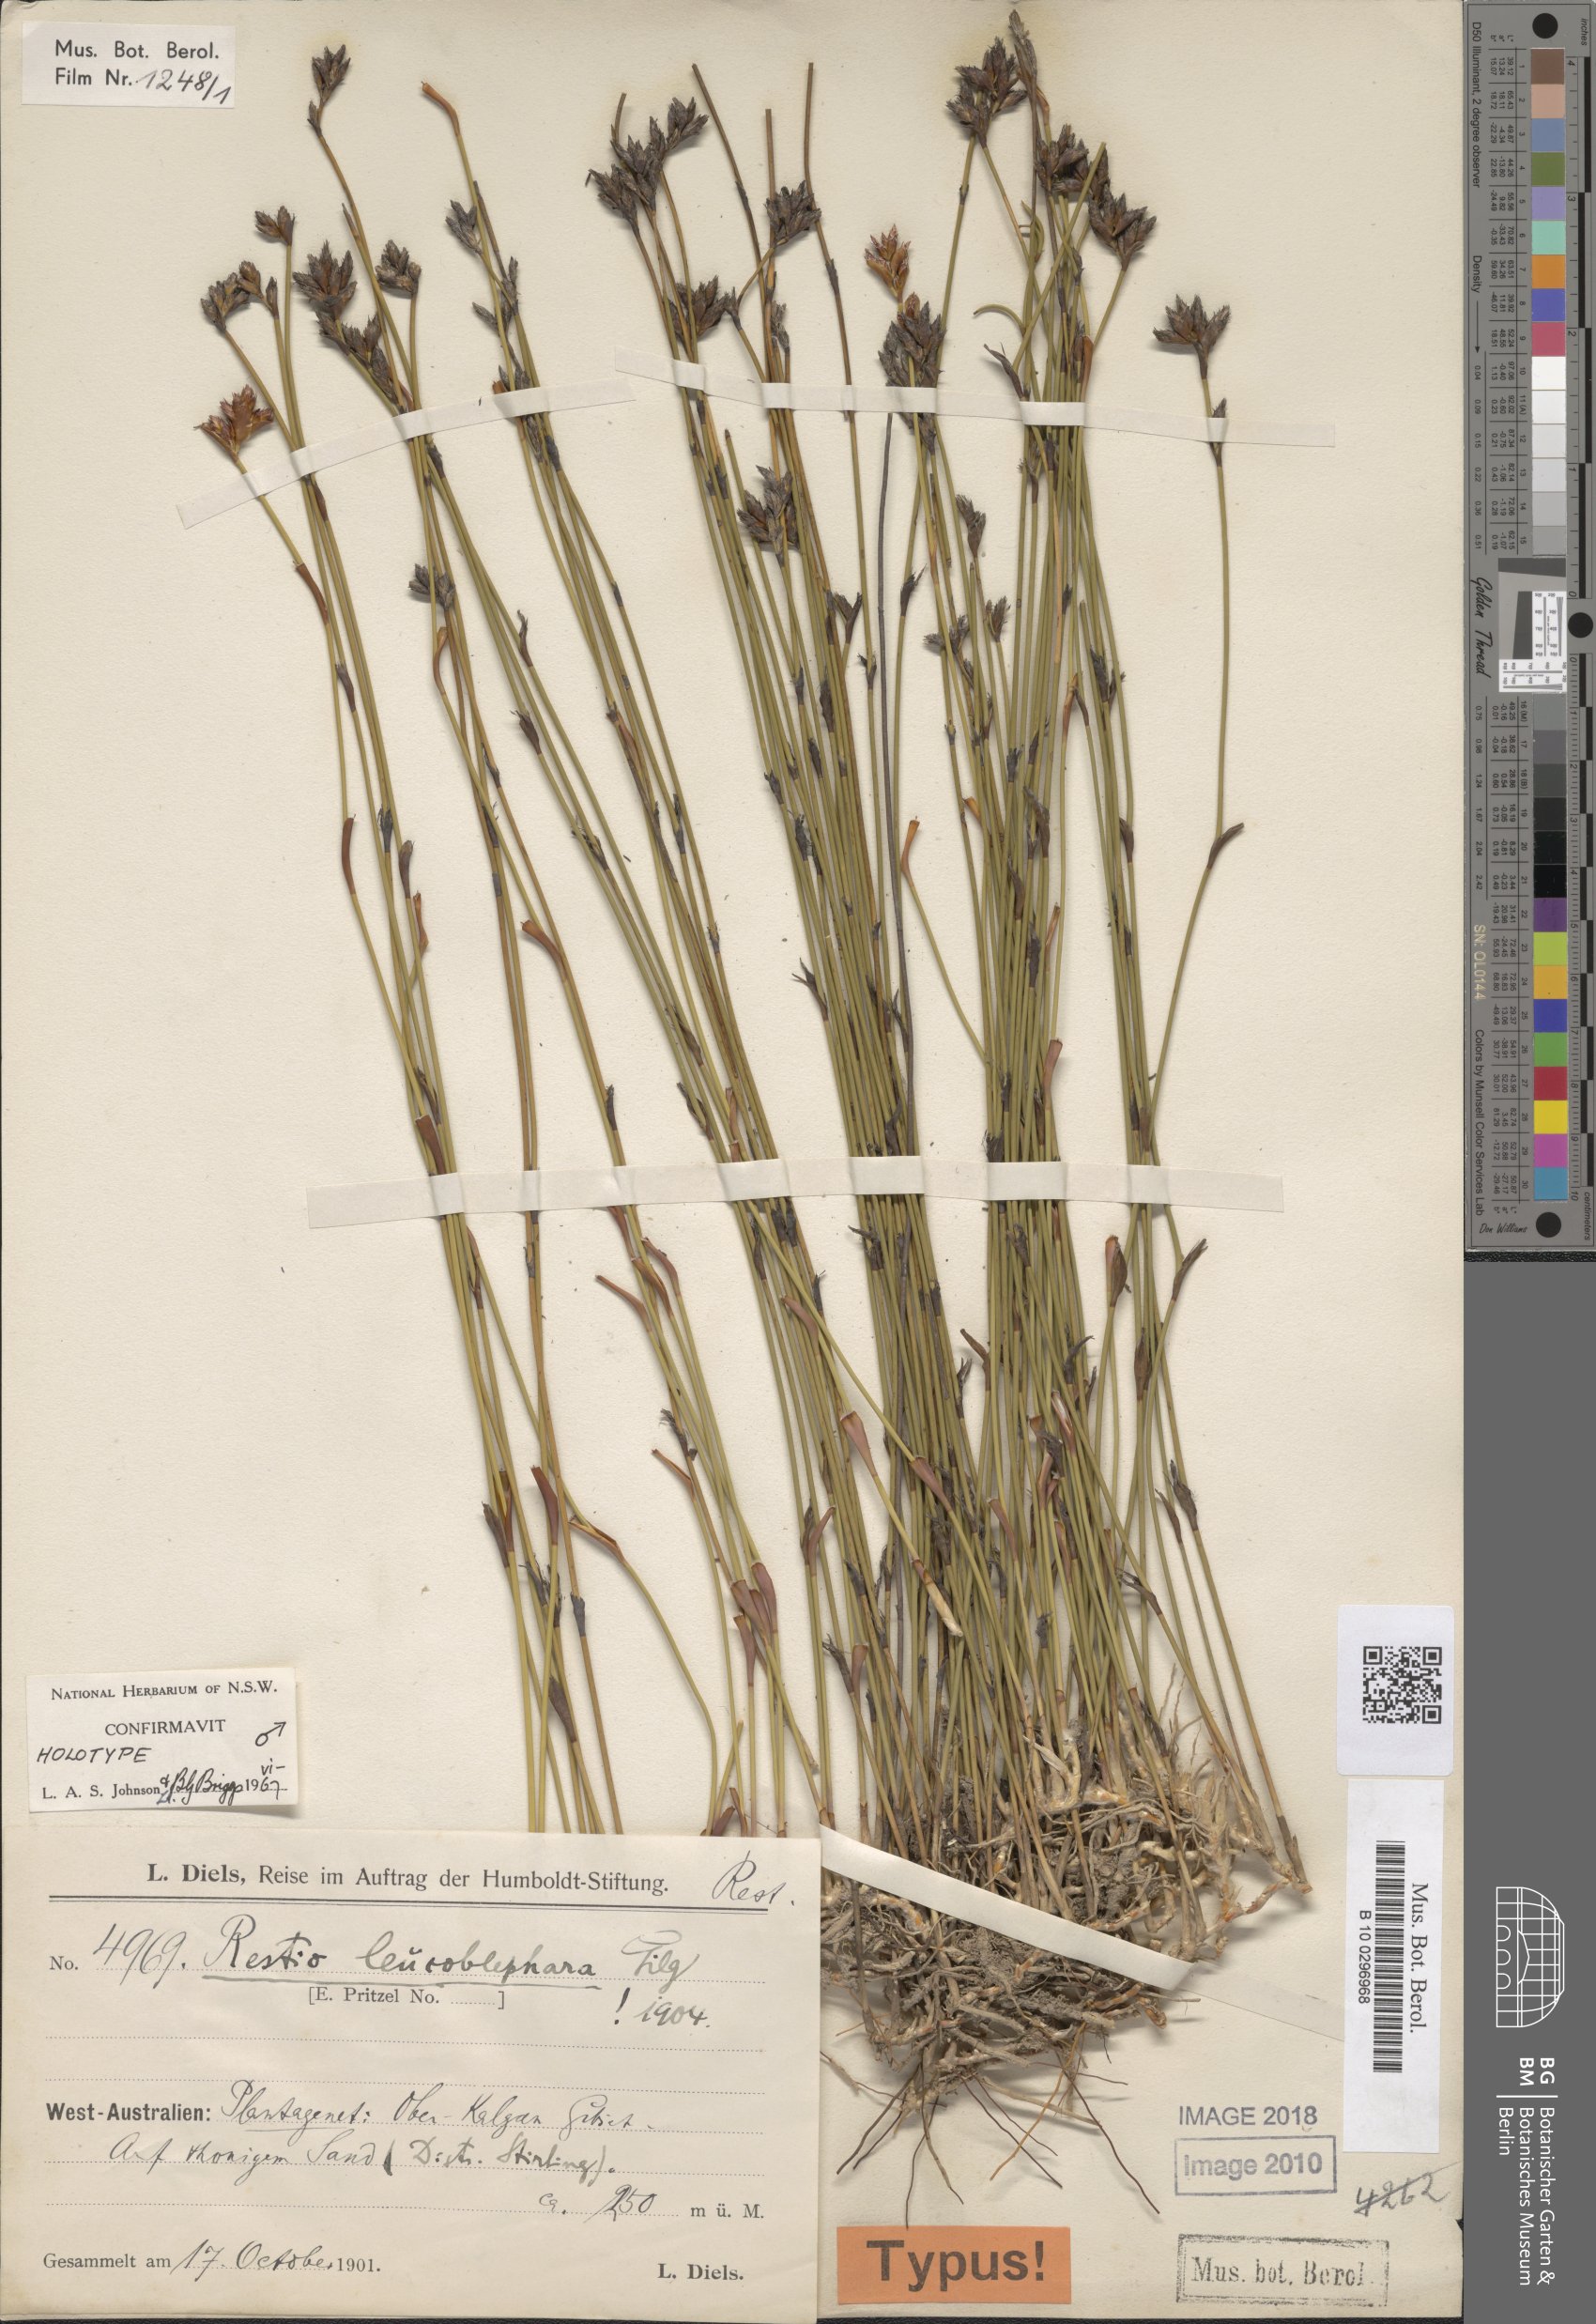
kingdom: Plantae
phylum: Tracheophyta
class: Liliopsida
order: Poales
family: Restionaceae
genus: Chordifex
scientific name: Chordifex leucoblepharus
